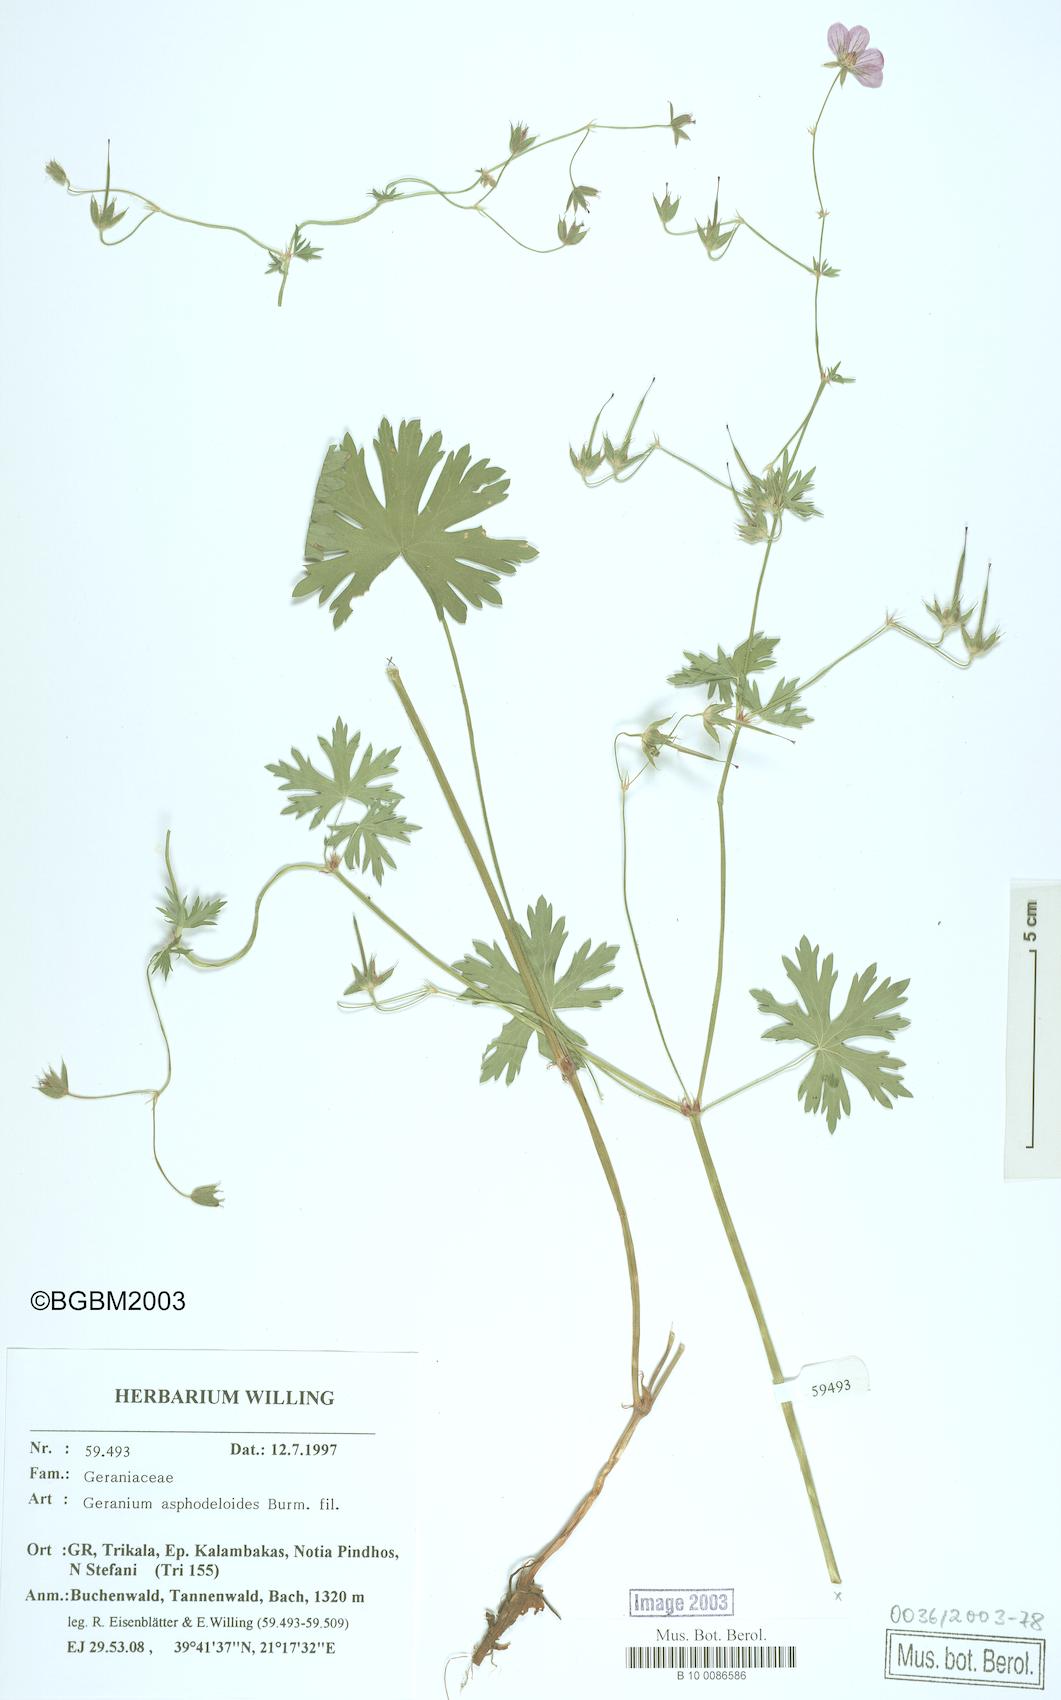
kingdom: Plantae
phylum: Tracheophyta
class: Magnoliopsida
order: Geraniales
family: Geraniaceae
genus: Geranium
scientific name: Geranium asphodeloides
